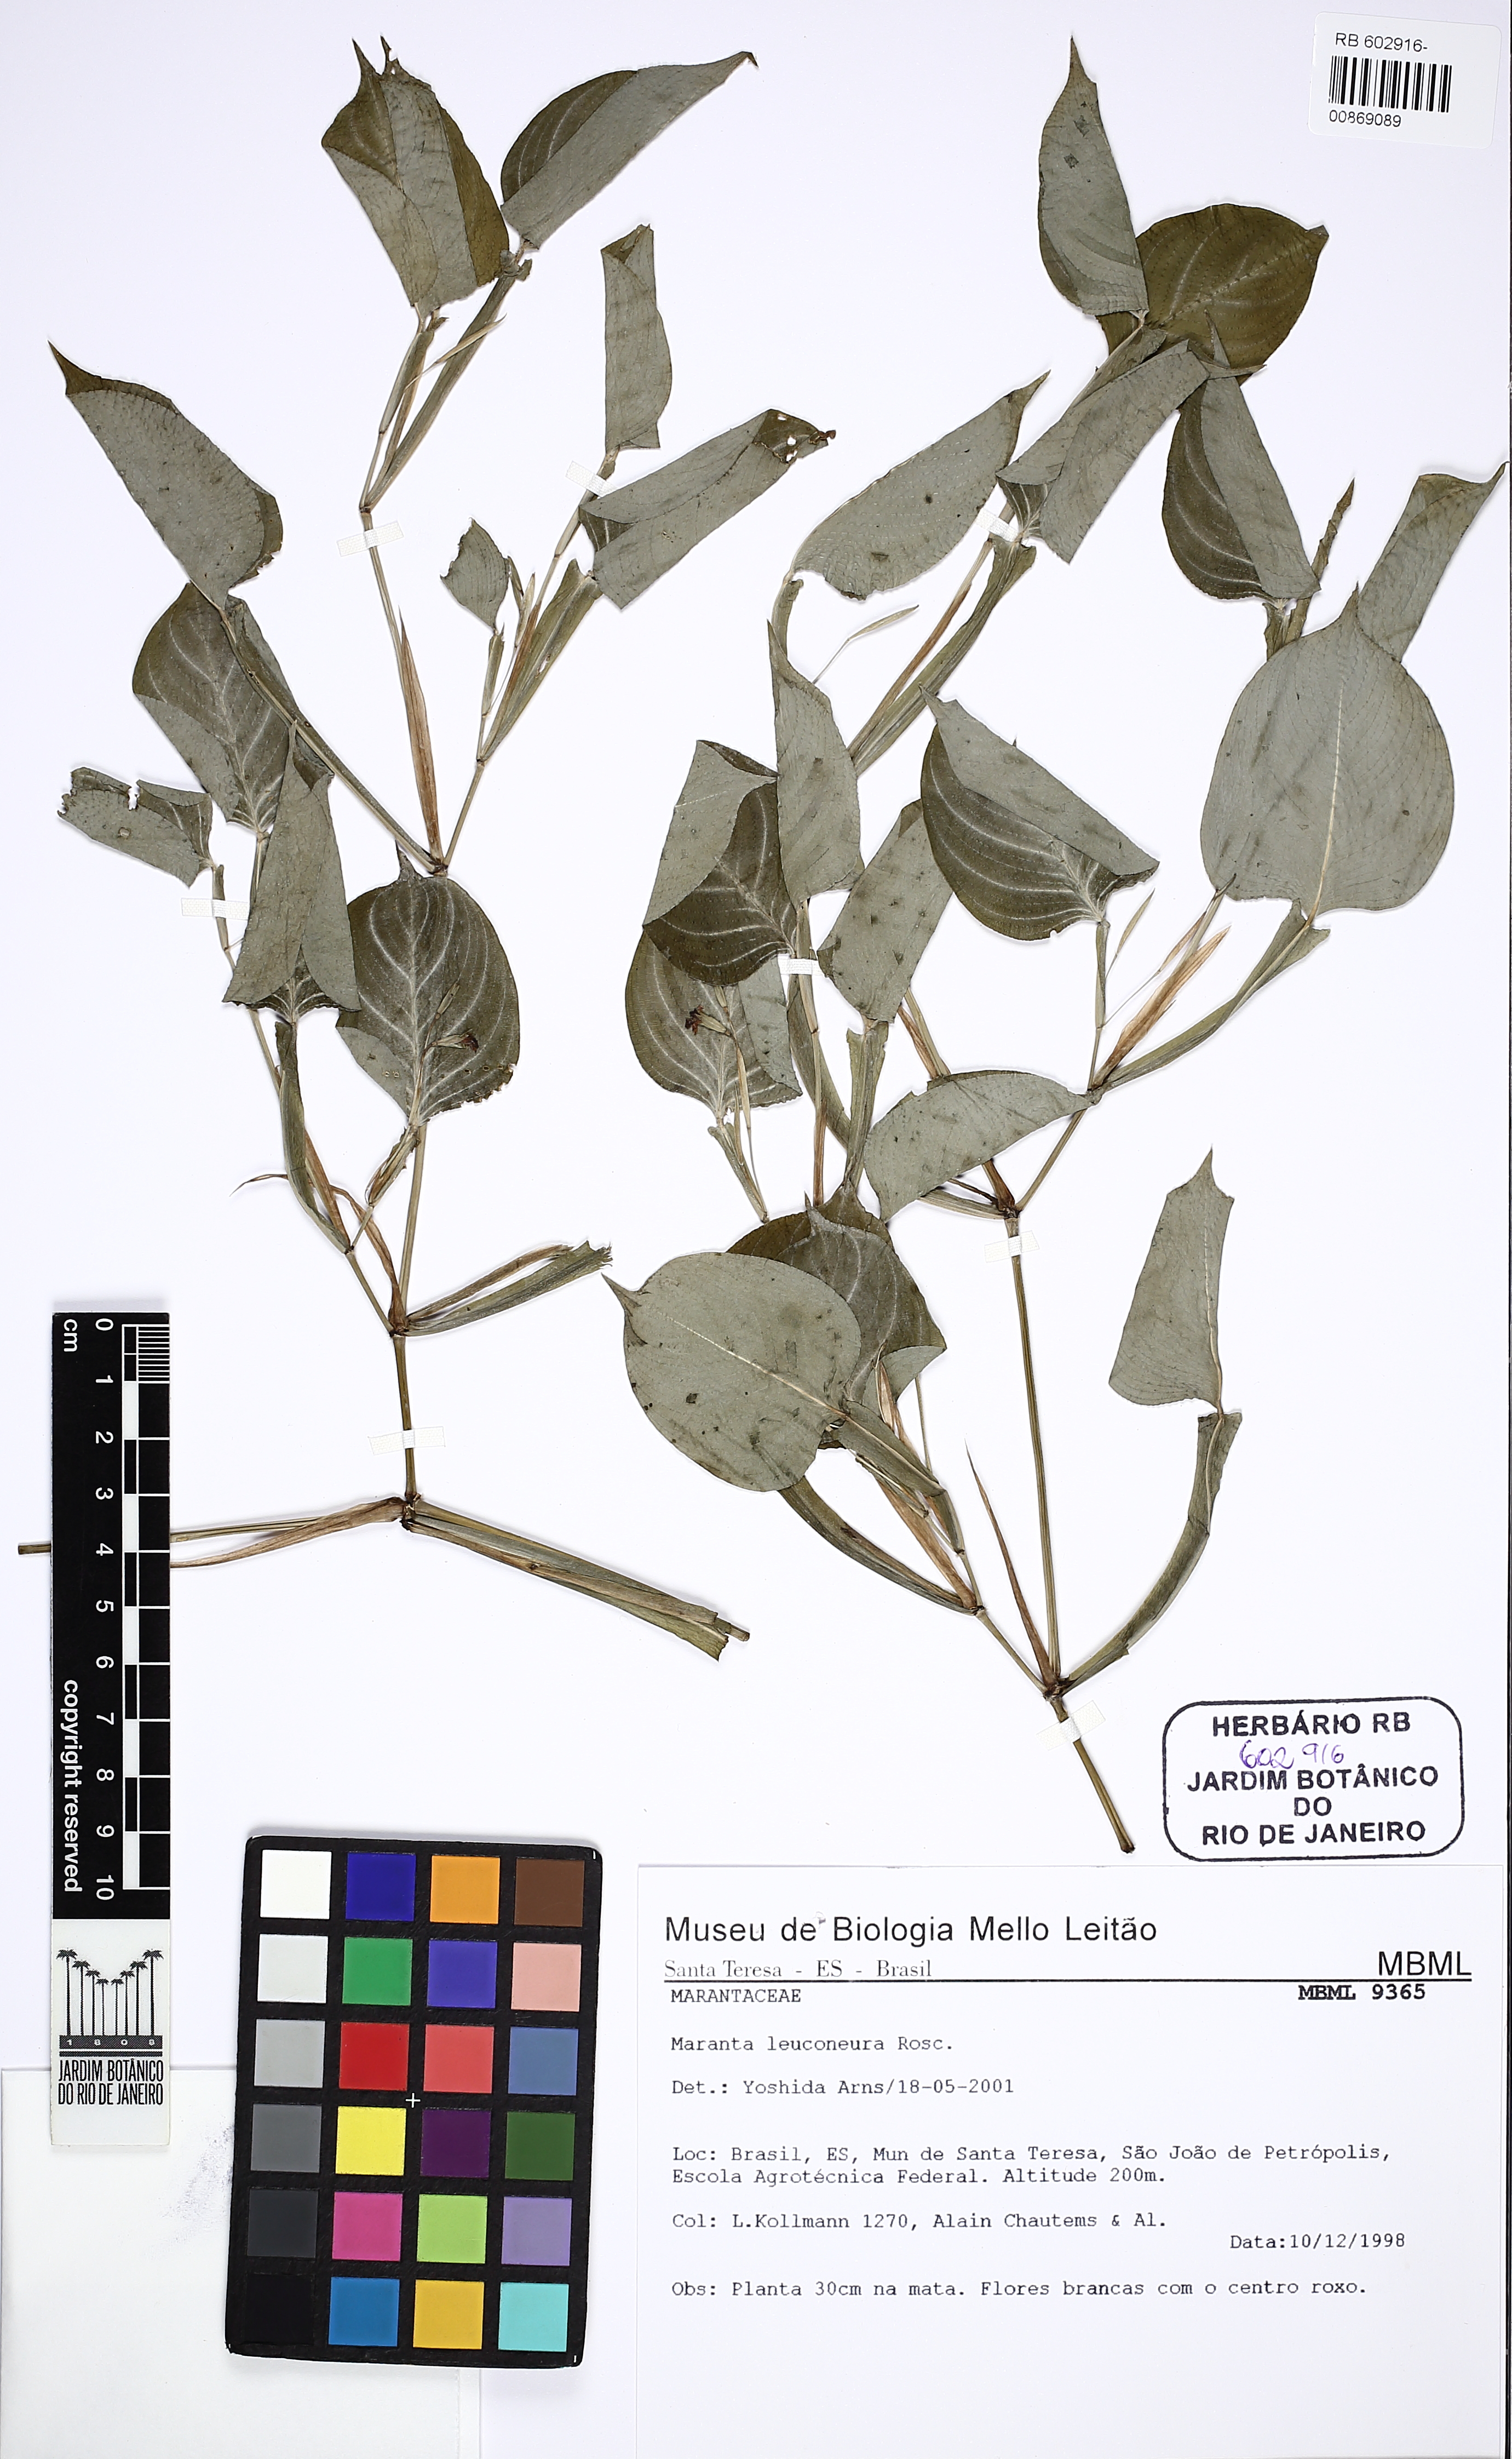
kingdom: Plantae
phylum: Tracheophyta
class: Liliopsida
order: Zingiberales
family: Marantaceae
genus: Maranta
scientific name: Maranta foliosa
